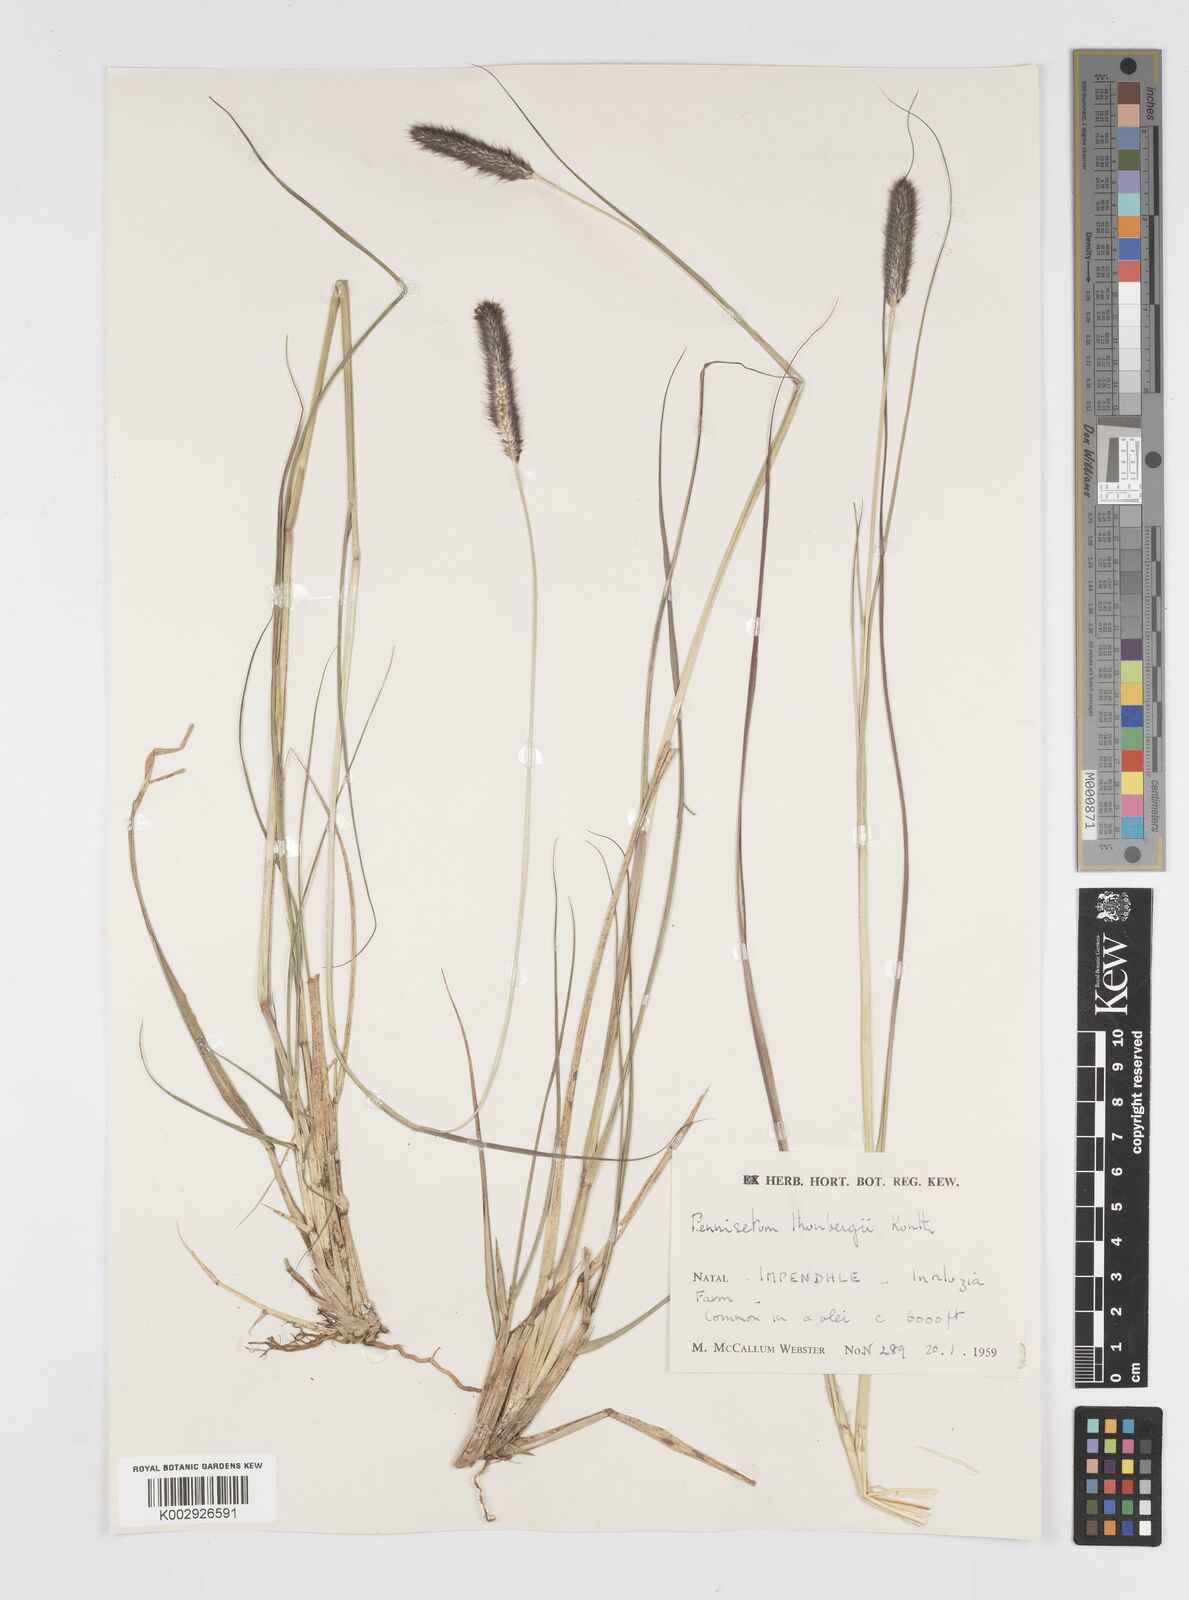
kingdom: Plantae
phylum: Tracheophyta
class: Liliopsida
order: Poales
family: Poaceae
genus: Cenchrus
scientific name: Cenchrus geniculatus
